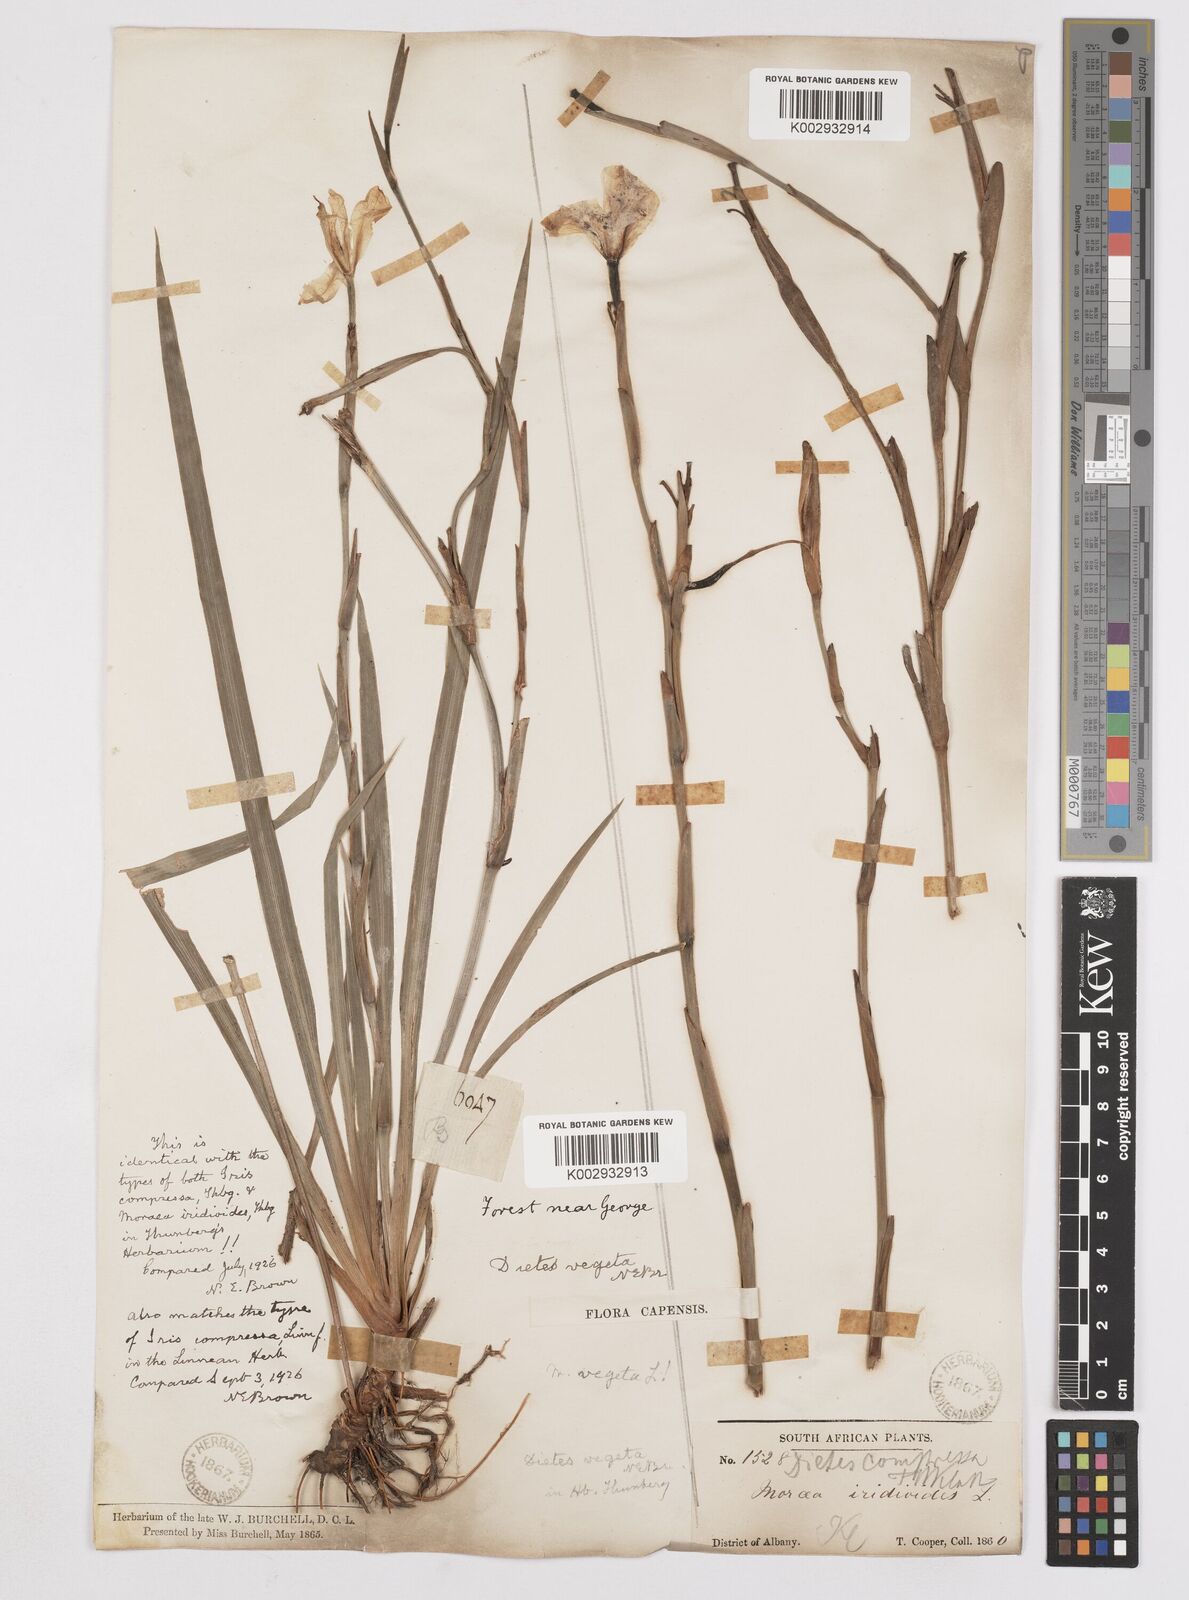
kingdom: Plantae
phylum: Tracheophyta
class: Liliopsida
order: Asparagales
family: Iridaceae
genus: Dietes
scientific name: Dietes iridioides
